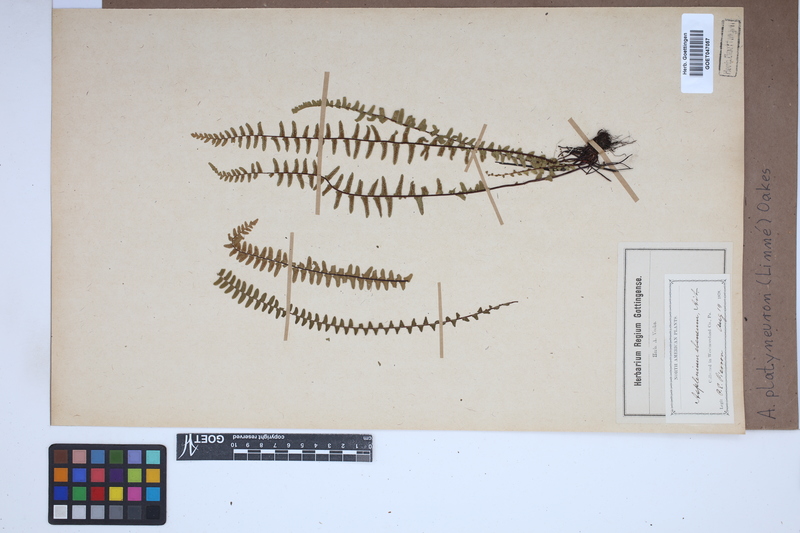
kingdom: Plantae
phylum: Tracheophyta
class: Polypodiopsida
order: Polypodiales
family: Aspleniaceae
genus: Asplenium
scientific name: Asplenium platyneuron
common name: Ebony spleenwort
